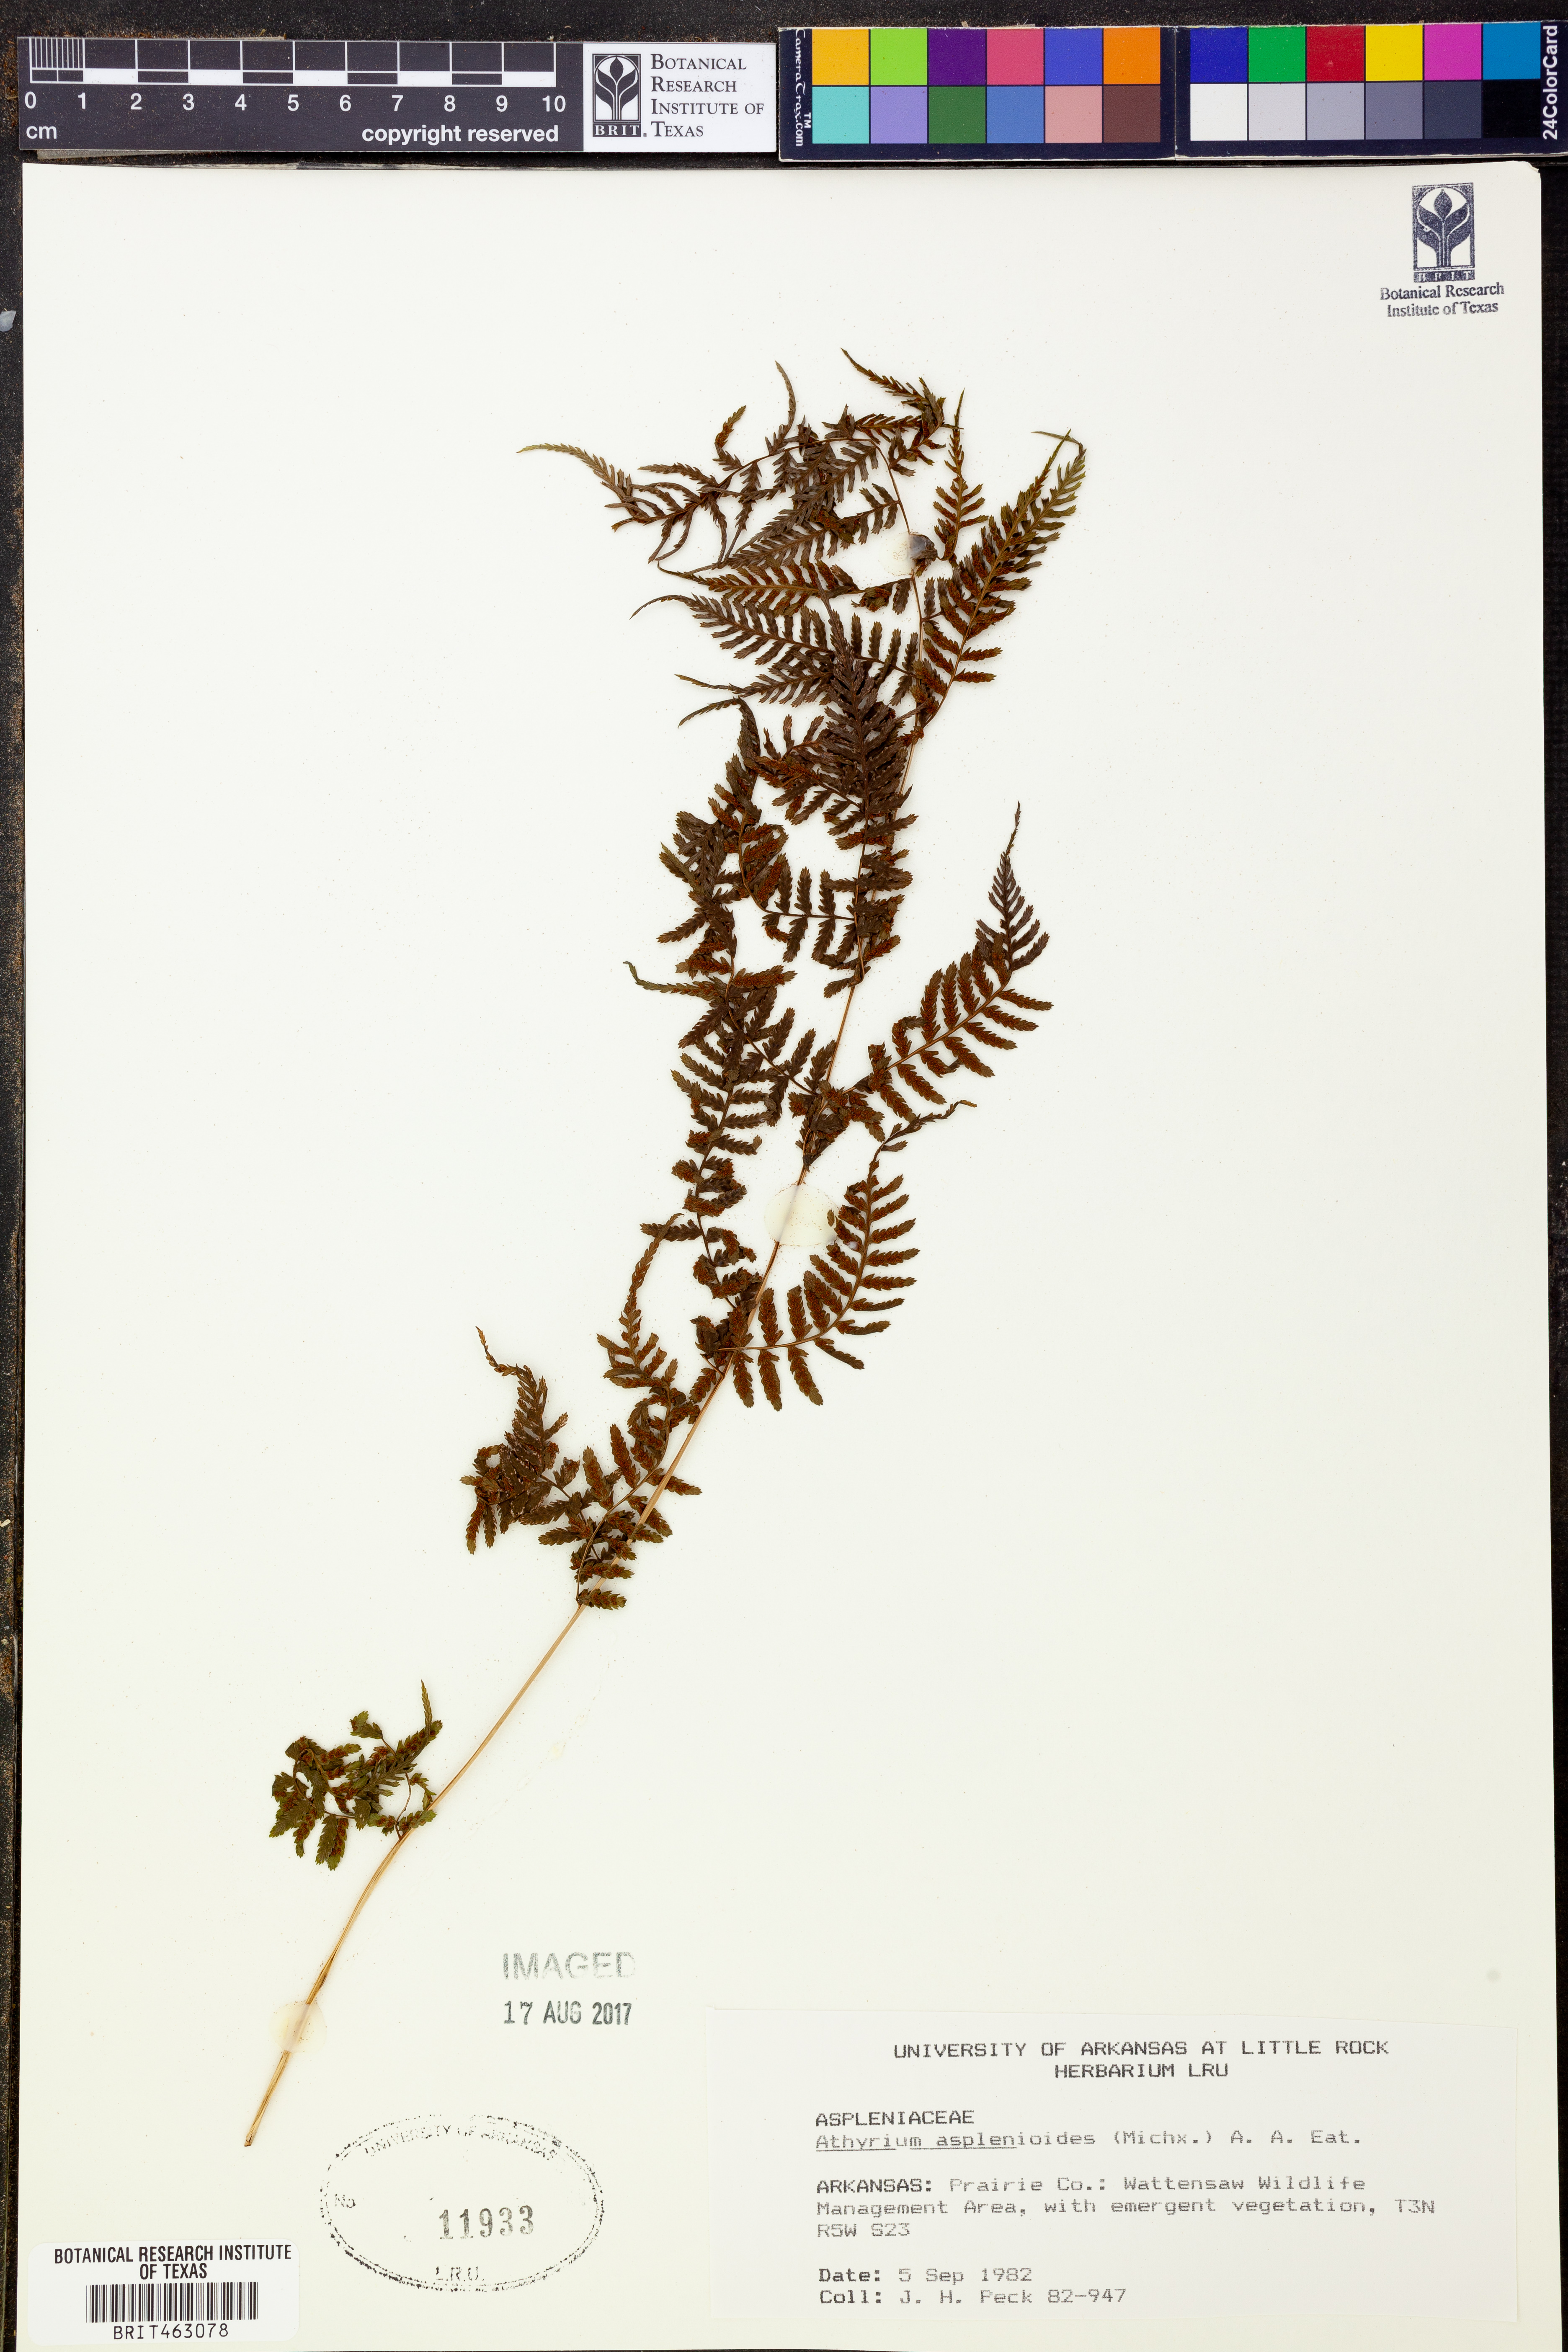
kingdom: Plantae
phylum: Tracheophyta
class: Polypodiopsida
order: Polypodiales
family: Athyriaceae
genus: Athyrium
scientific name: Athyrium asplenioides
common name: Southern lady fern
